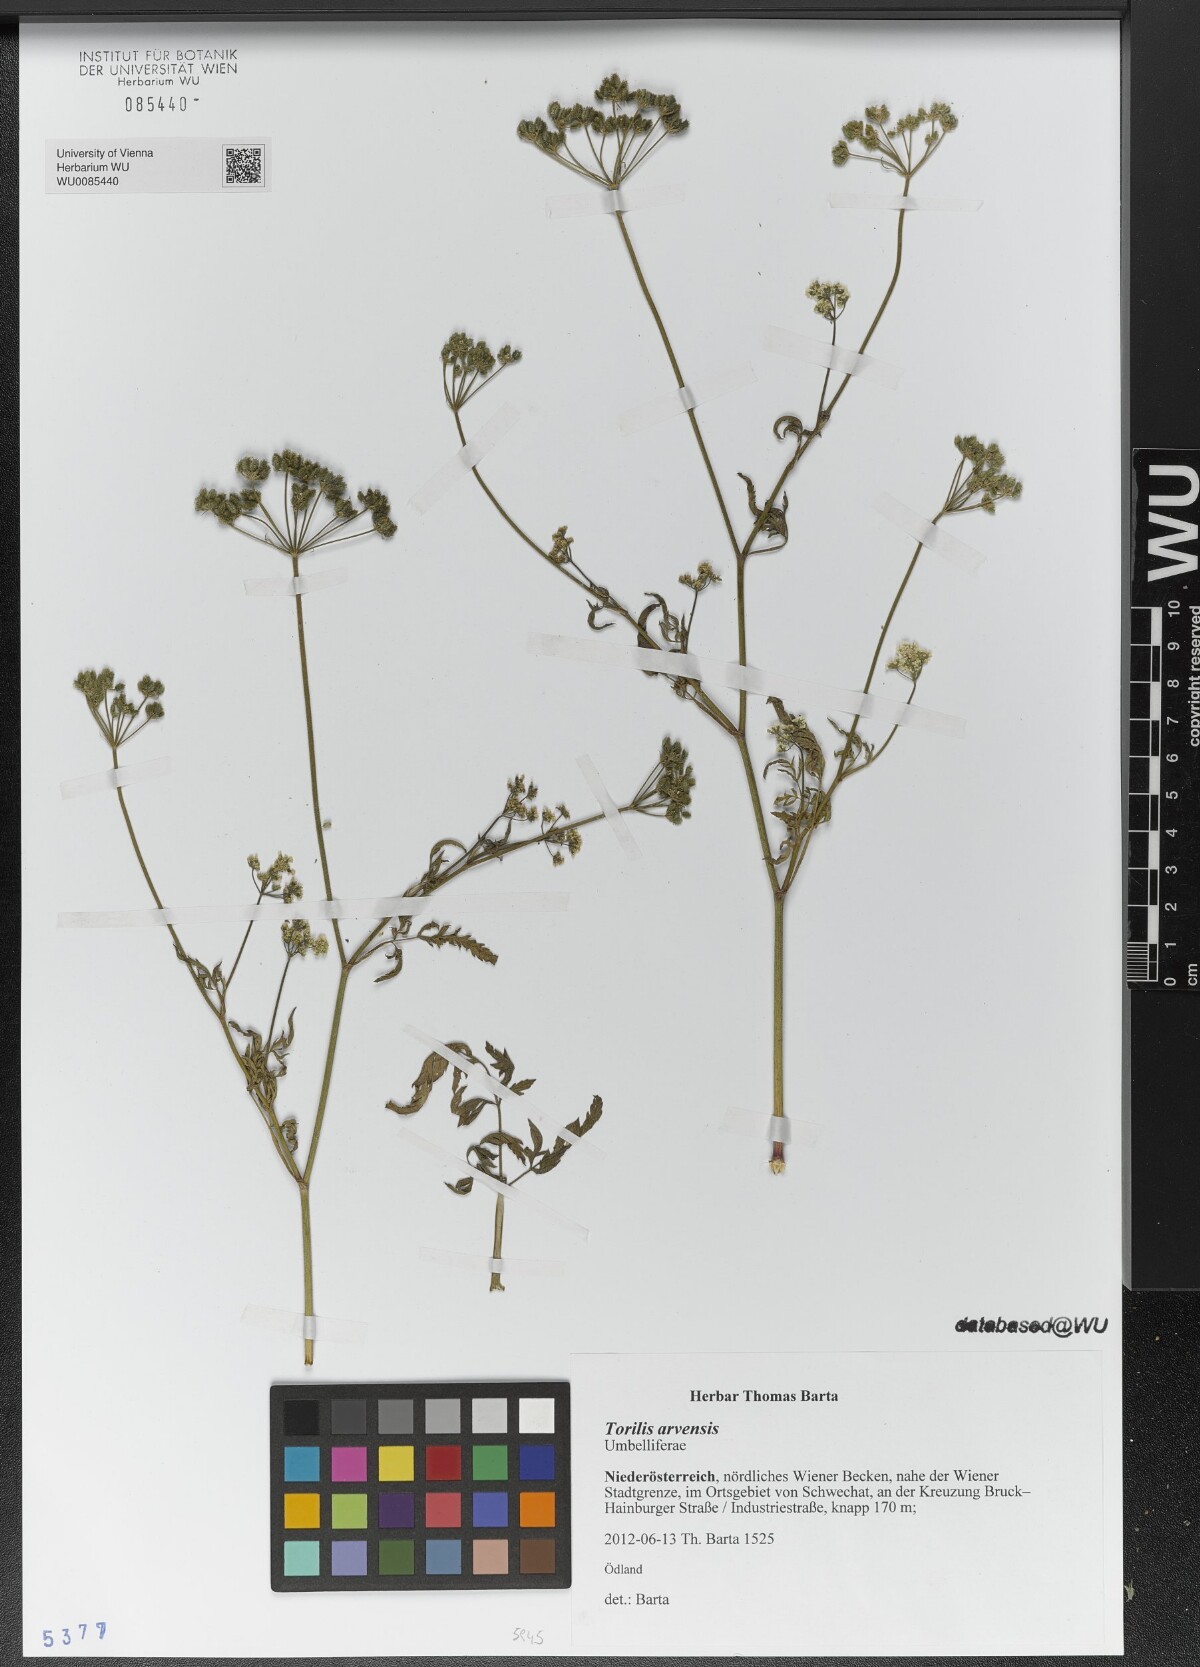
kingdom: Plantae
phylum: Tracheophyta
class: Magnoliopsida
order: Apiales
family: Apiaceae
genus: Torilis
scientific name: Torilis arvensis
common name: Spreading hedge-parsley
